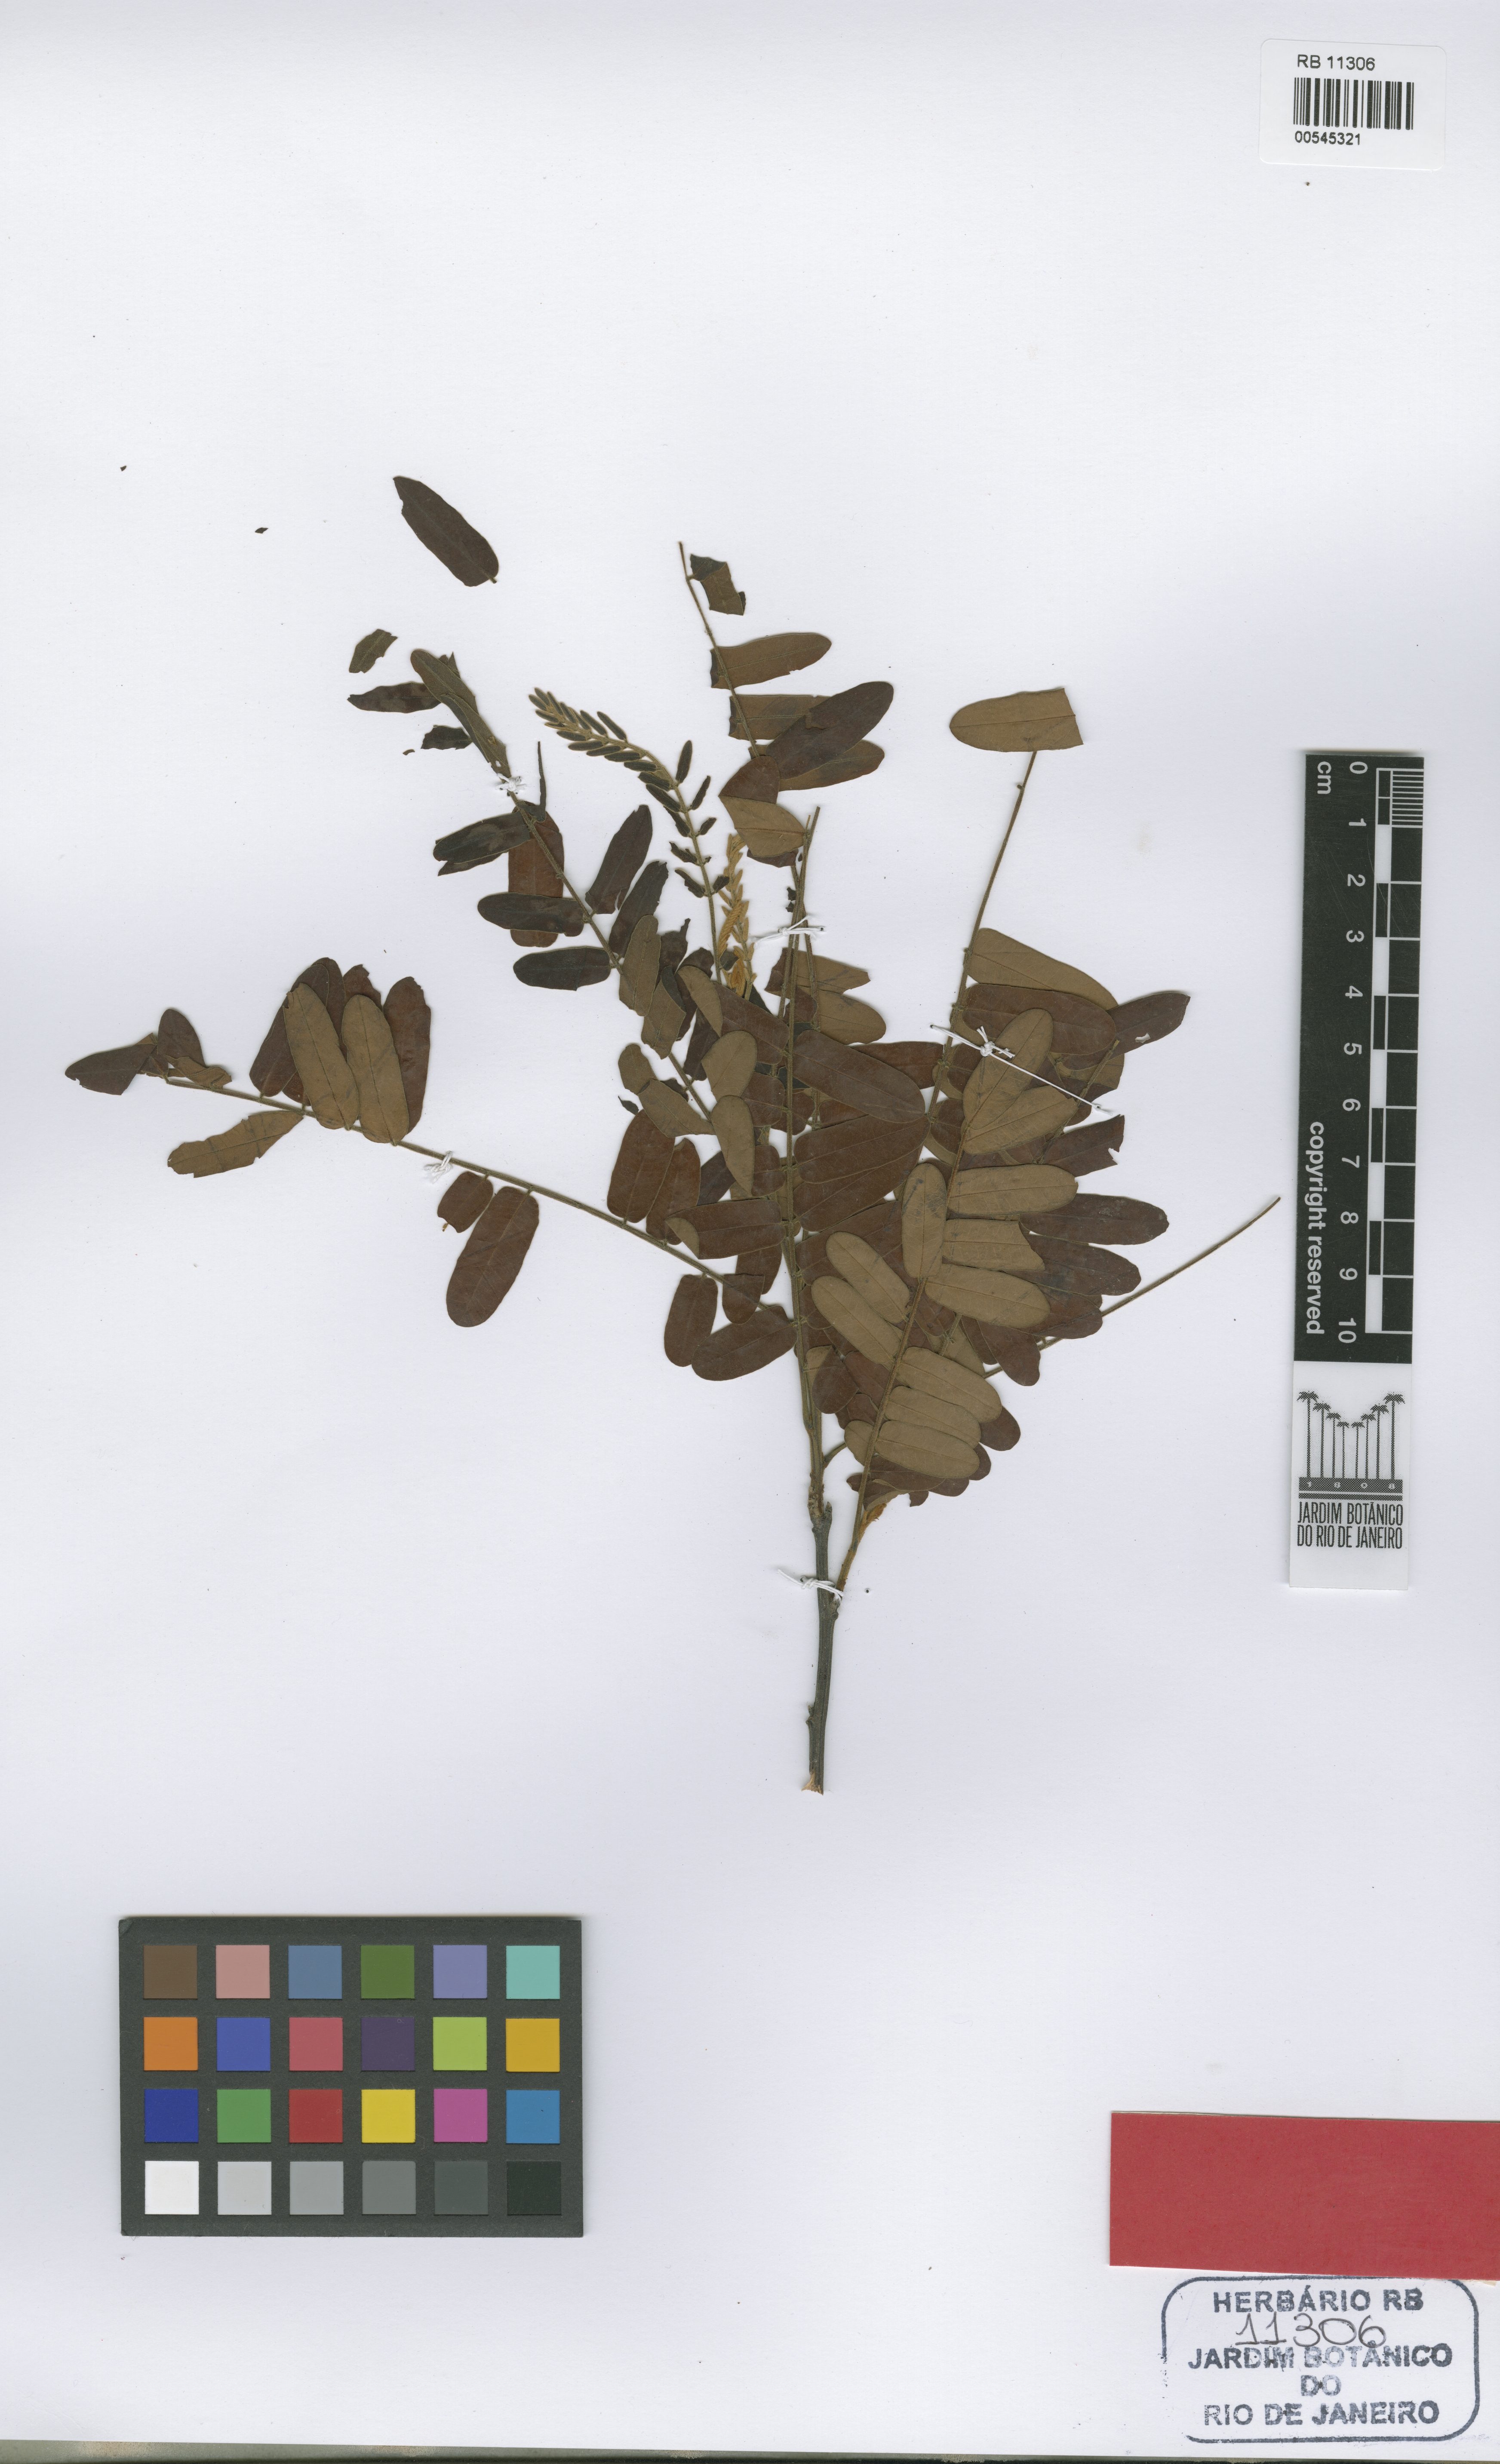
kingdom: Plantae
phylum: Tracheophyta
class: Magnoliopsida
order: Fabales
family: Fabaceae
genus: Cassia
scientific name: Cassia rubriflora
